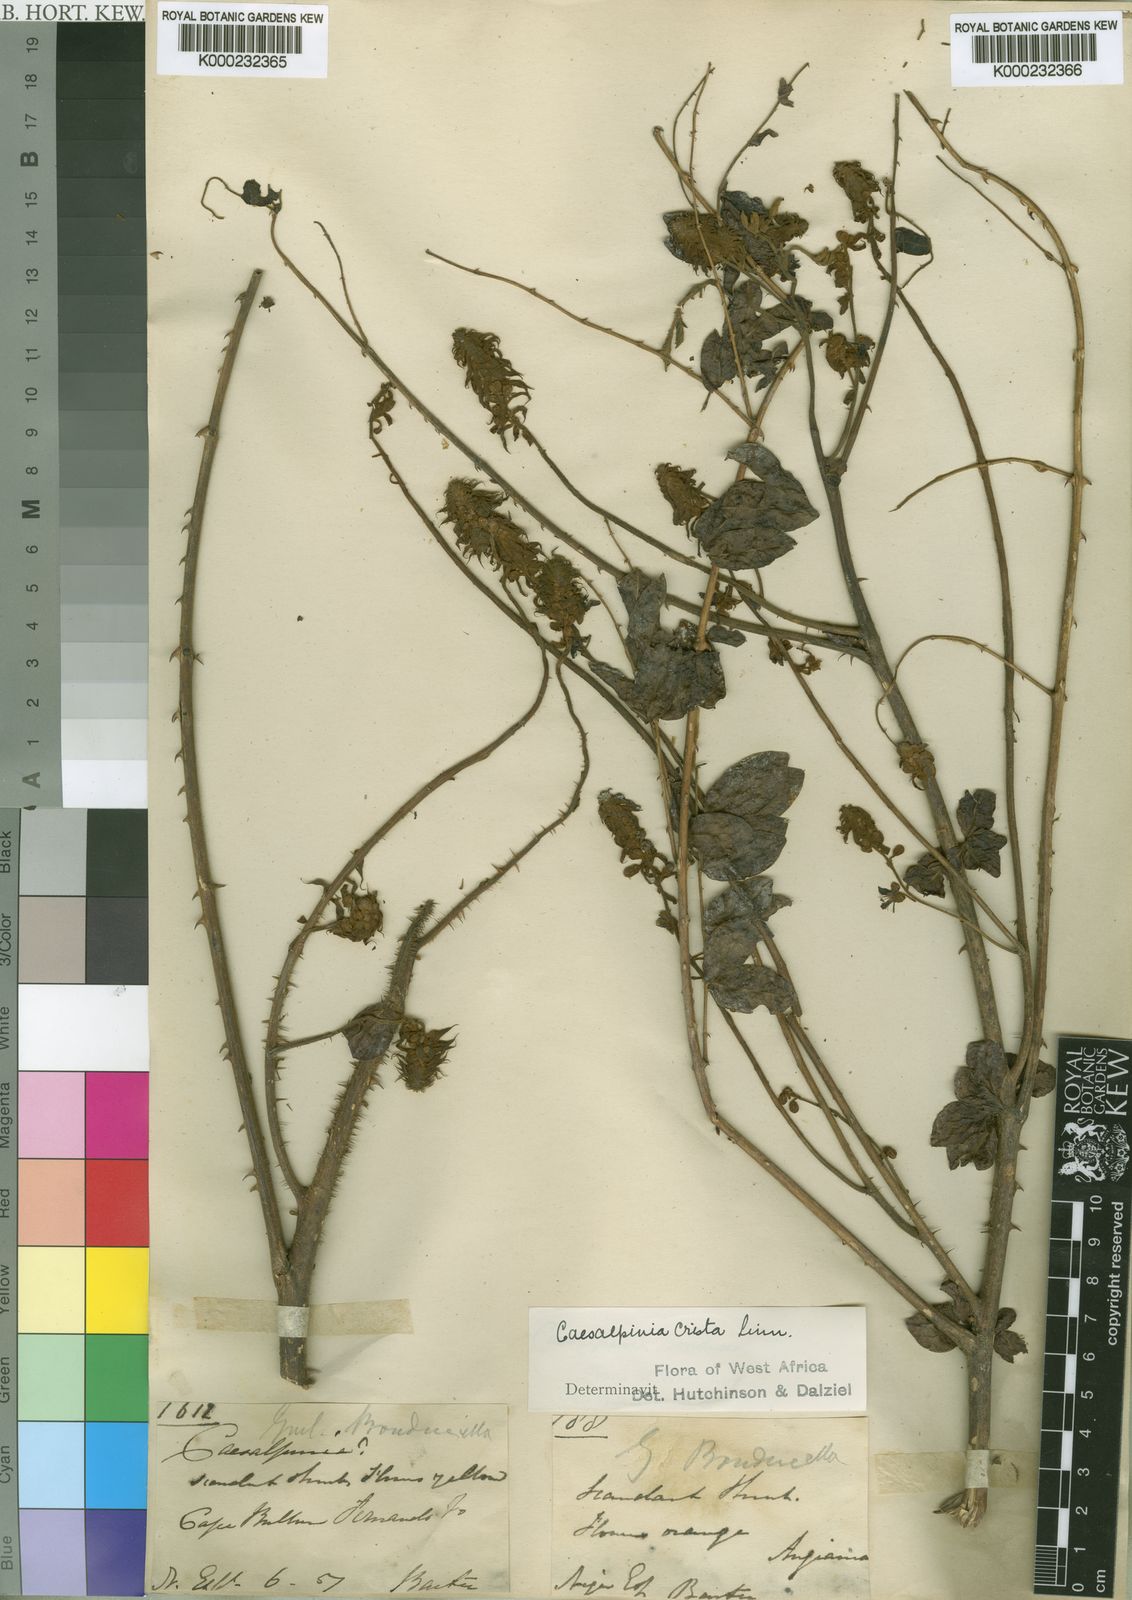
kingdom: Plantae
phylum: Tracheophyta
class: Magnoliopsida
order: Fabales
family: Fabaceae
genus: Guilandina
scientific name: Guilandina bonduc
